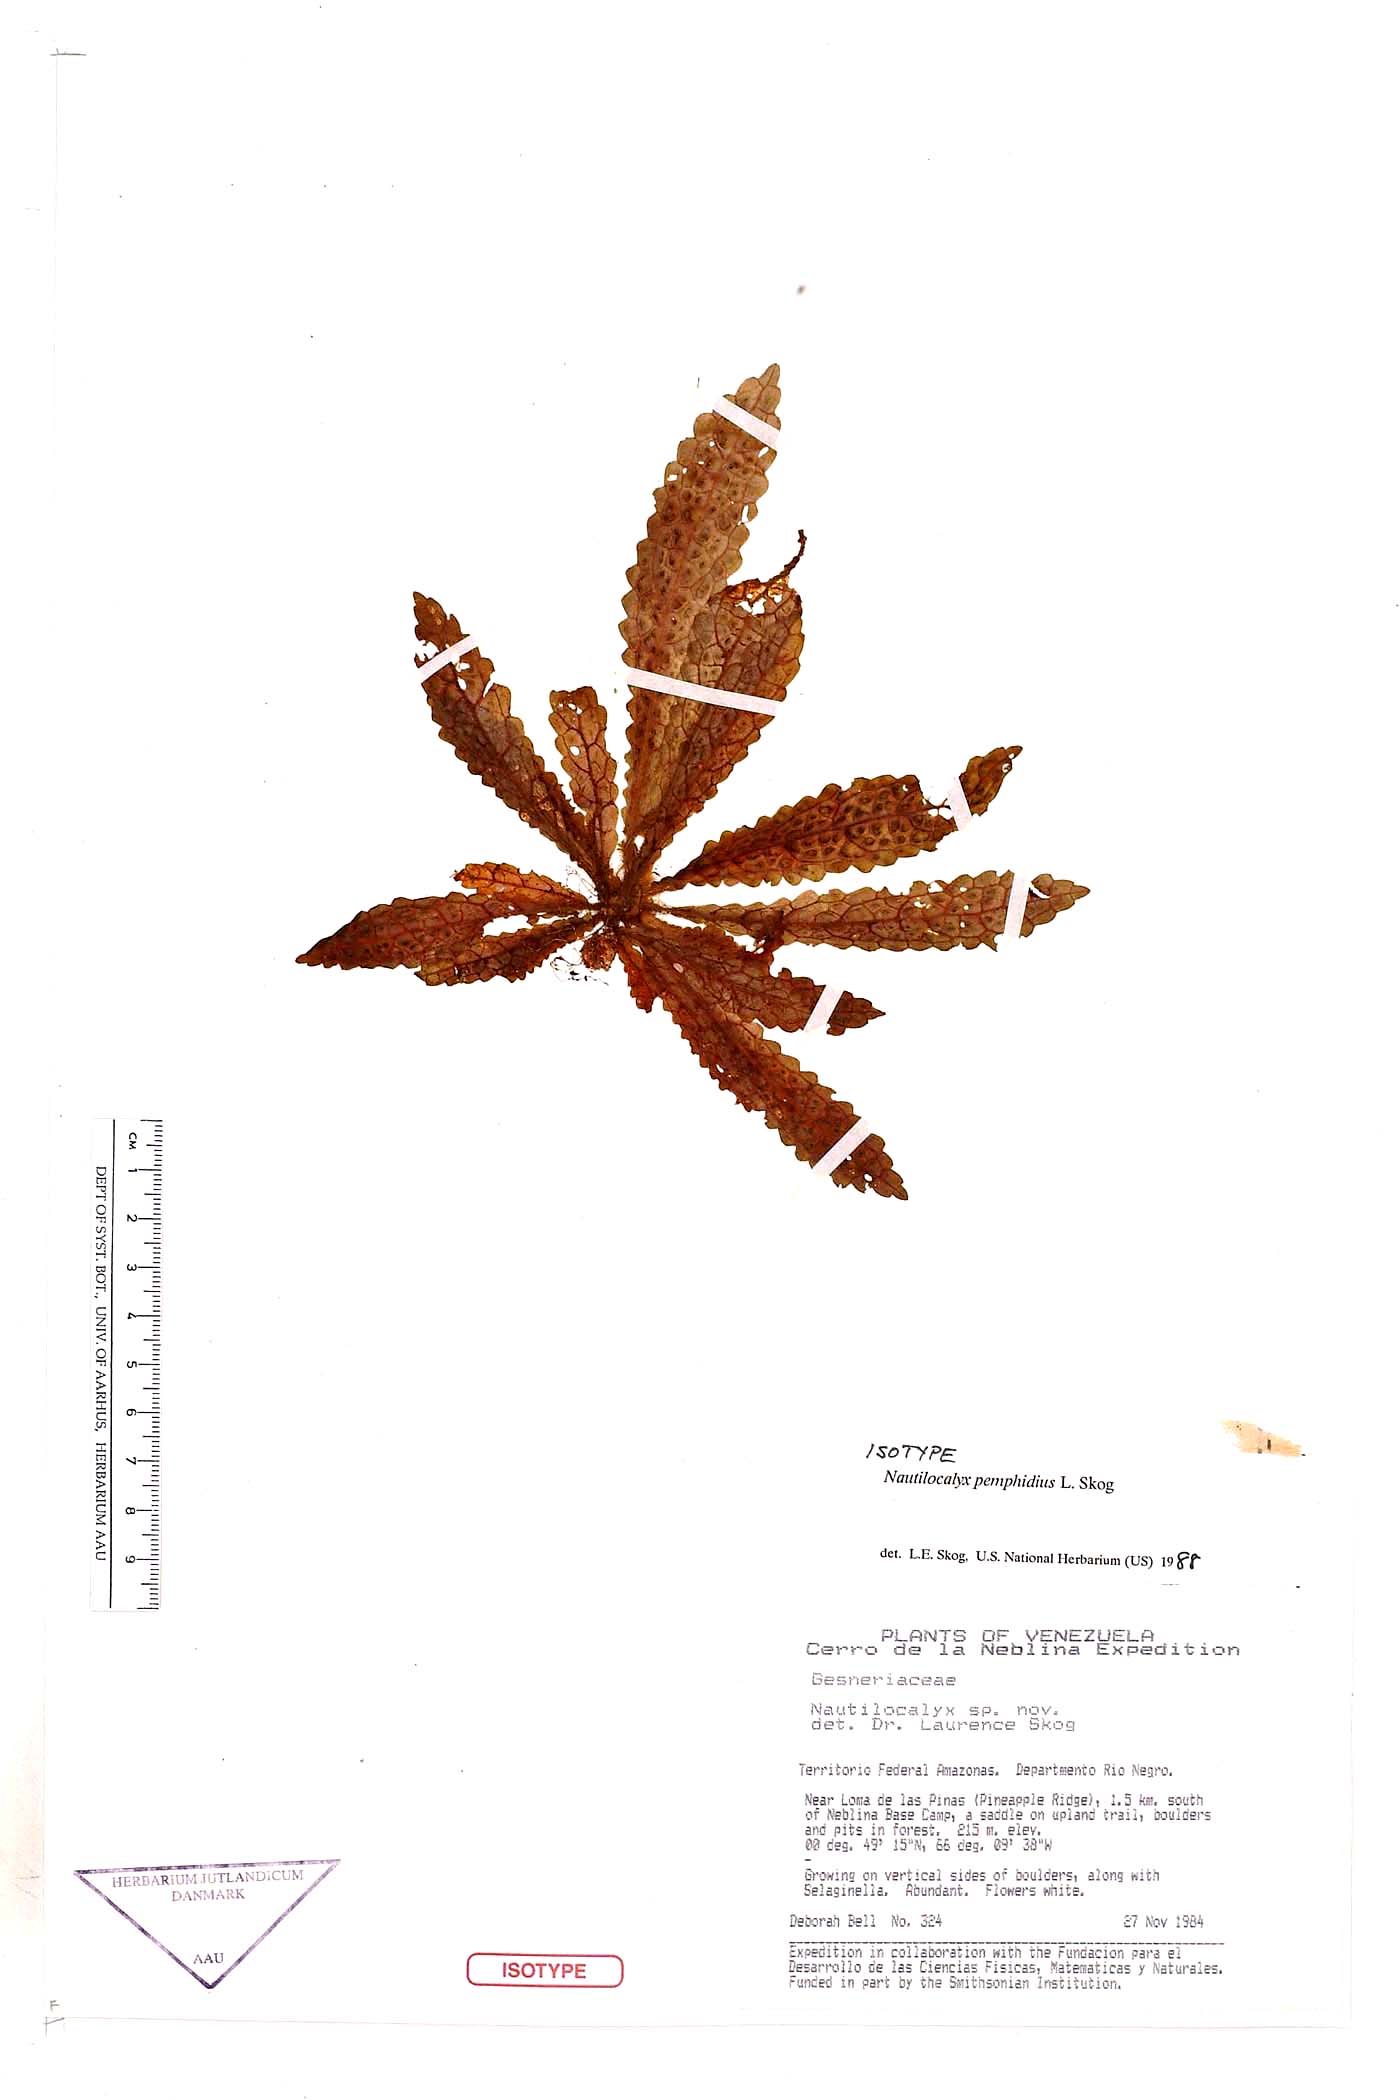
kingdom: Plantae
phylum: Tracheophyta
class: Magnoliopsida
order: Lamiales
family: Gesneriaceae
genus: Nautilocalyx
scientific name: Nautilocalyx pemphidius
